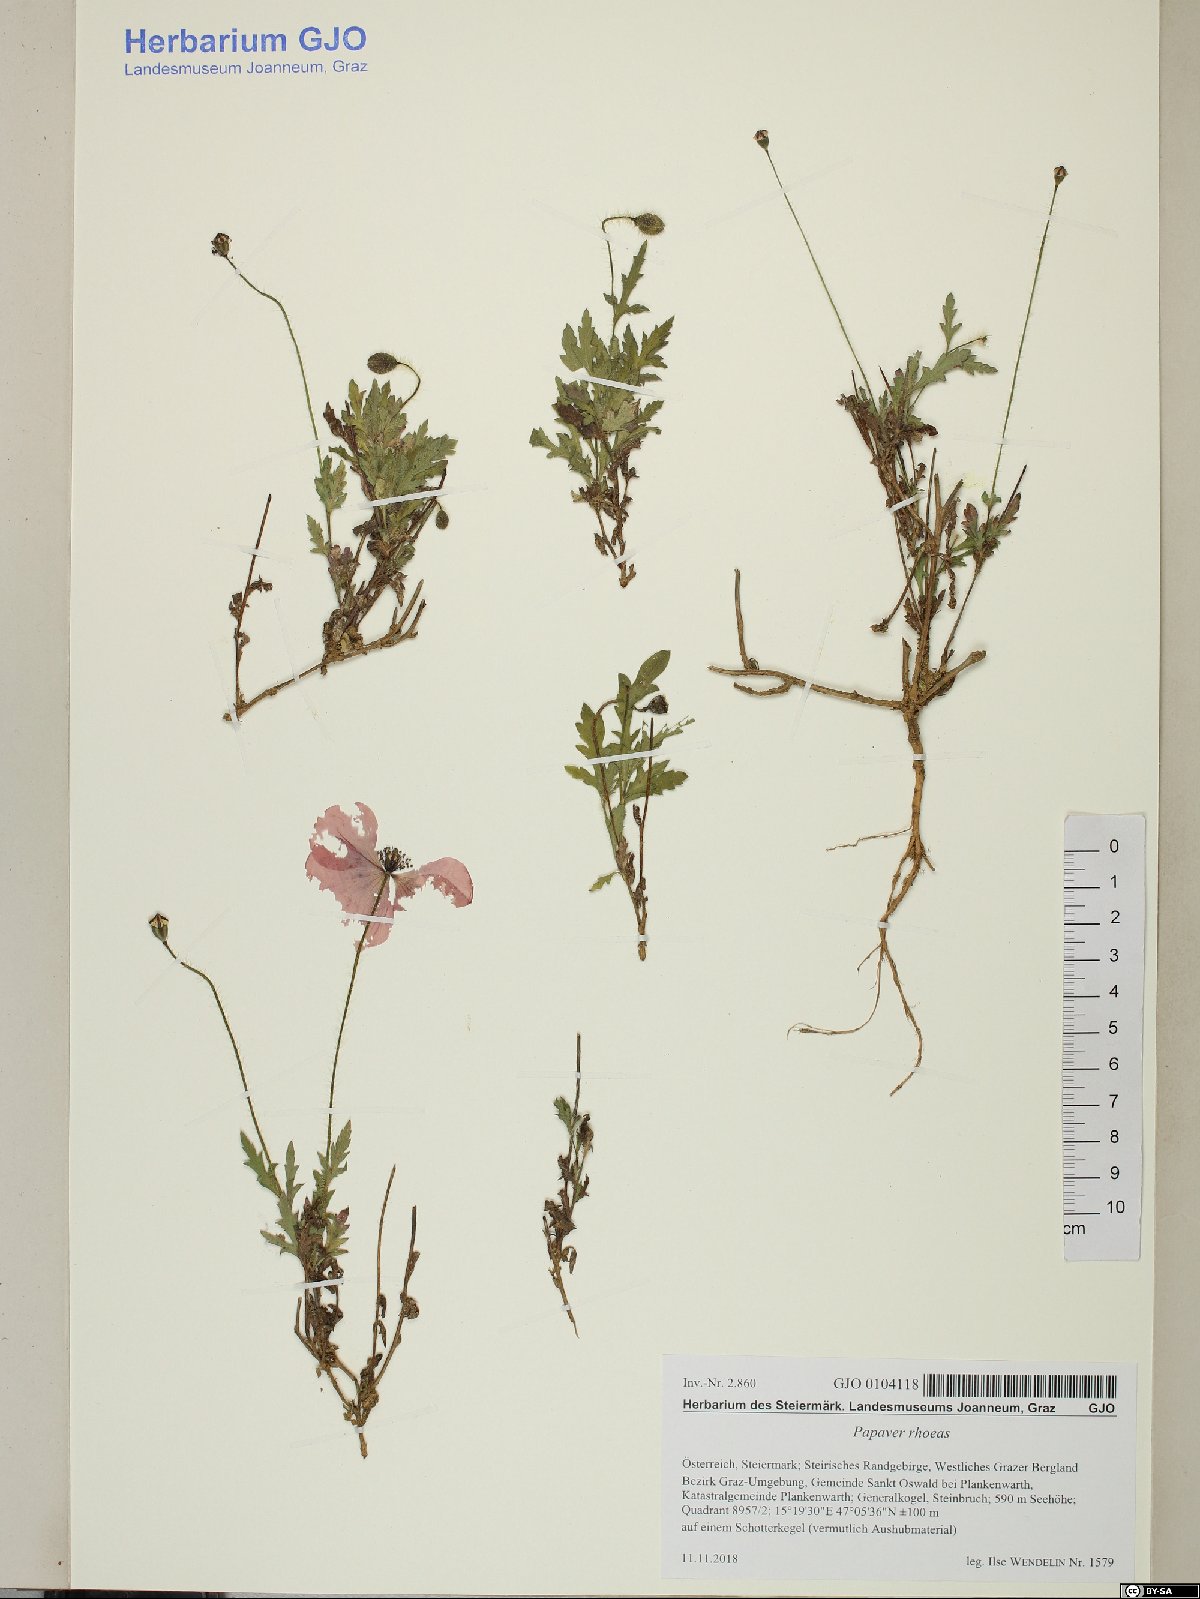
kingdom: Plantae
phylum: Tracheophyta
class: Magnoliopsida
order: Ranunculales
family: Papaveraceae
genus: Papaver
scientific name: Papaver rhoeas
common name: Corn poppy
